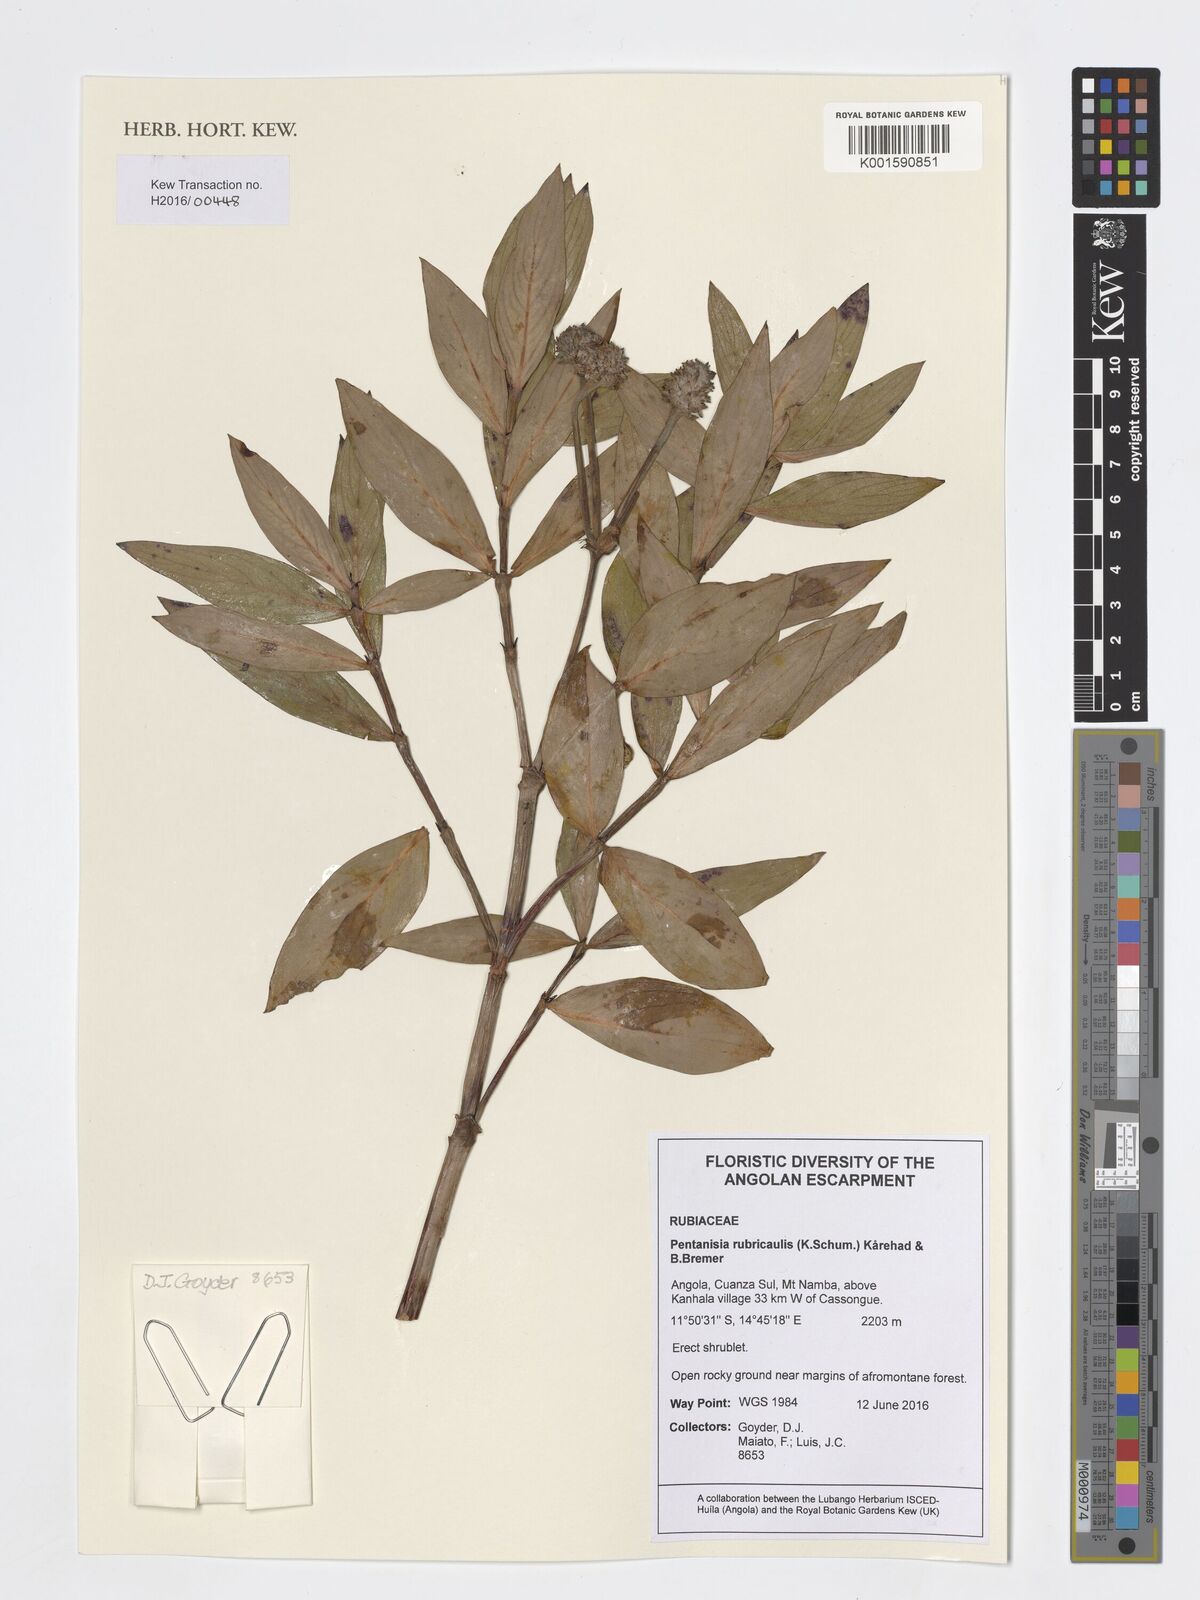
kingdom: Plantae
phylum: Tracheophyta
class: Magnoliopsida
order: Gentianales
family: Rubiaceae
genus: Pentanisia
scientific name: Pentanisia rubricaulis
